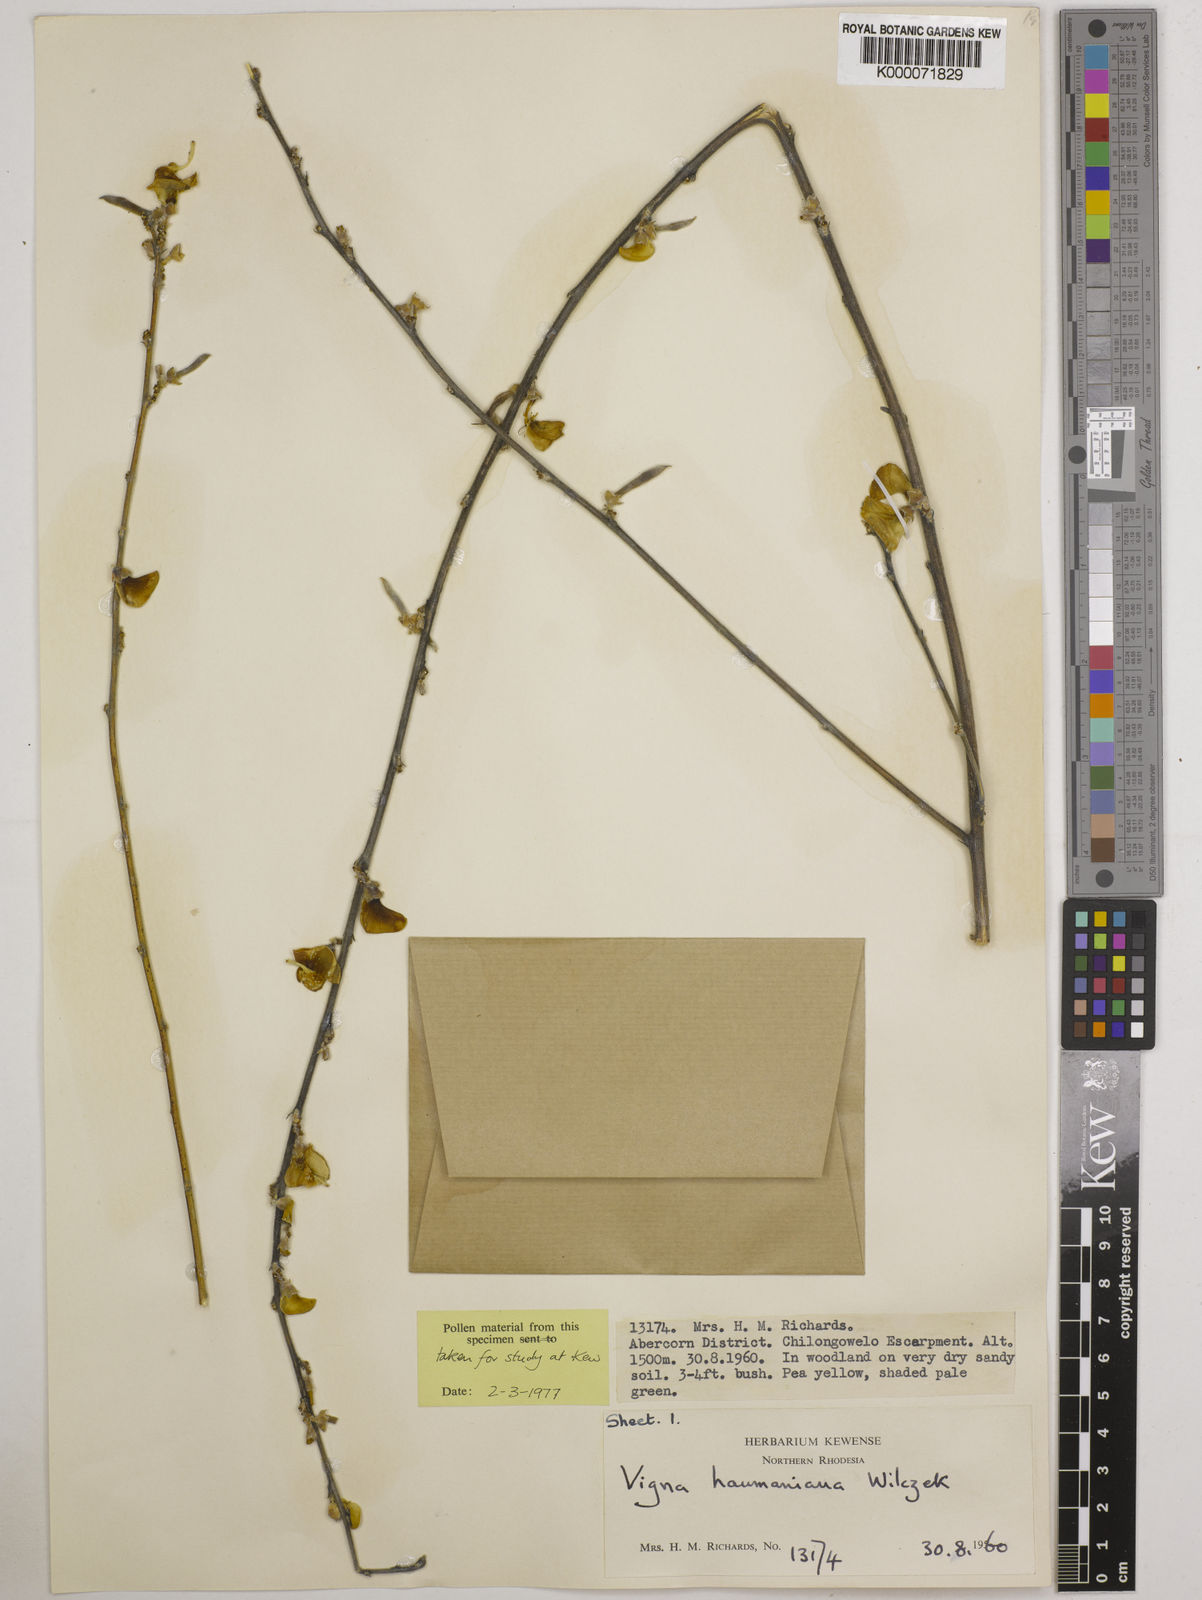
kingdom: Plantae
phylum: Tracheophyta
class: Magnoliopsida
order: Fabales
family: Fabaceae
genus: Vigna
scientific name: Vigna haumaniana
